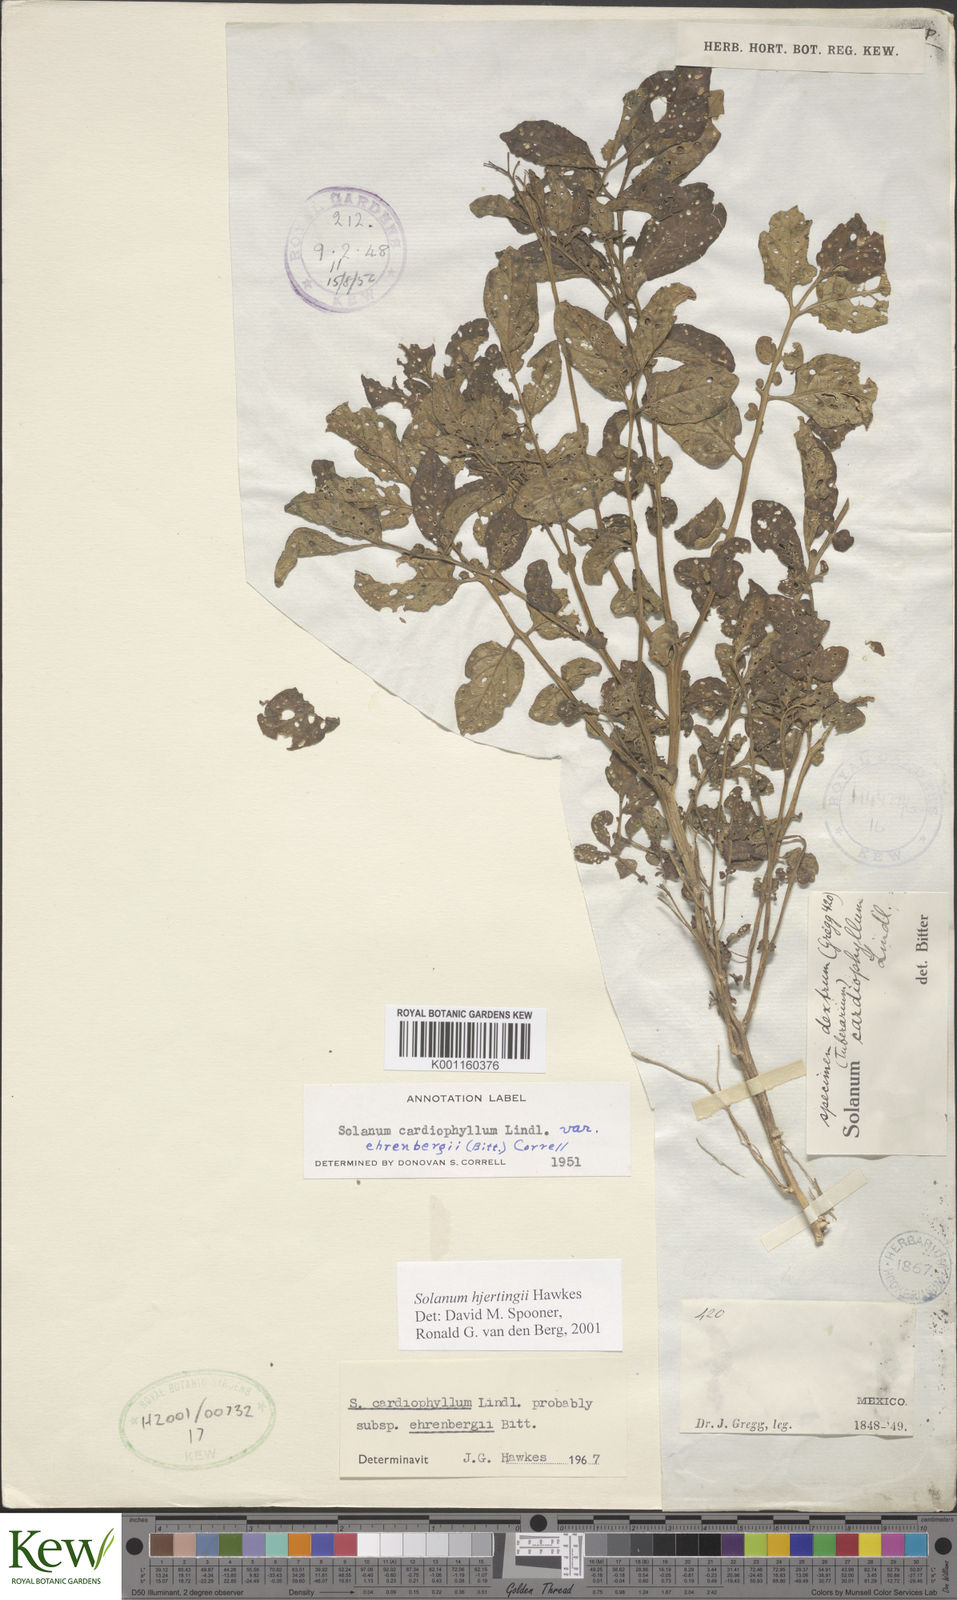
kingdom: Plantae
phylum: Tracheophyta
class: Magnoliopsida
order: Solanales
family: Solanaceae
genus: Solanum
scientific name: Solanum hjertingii
